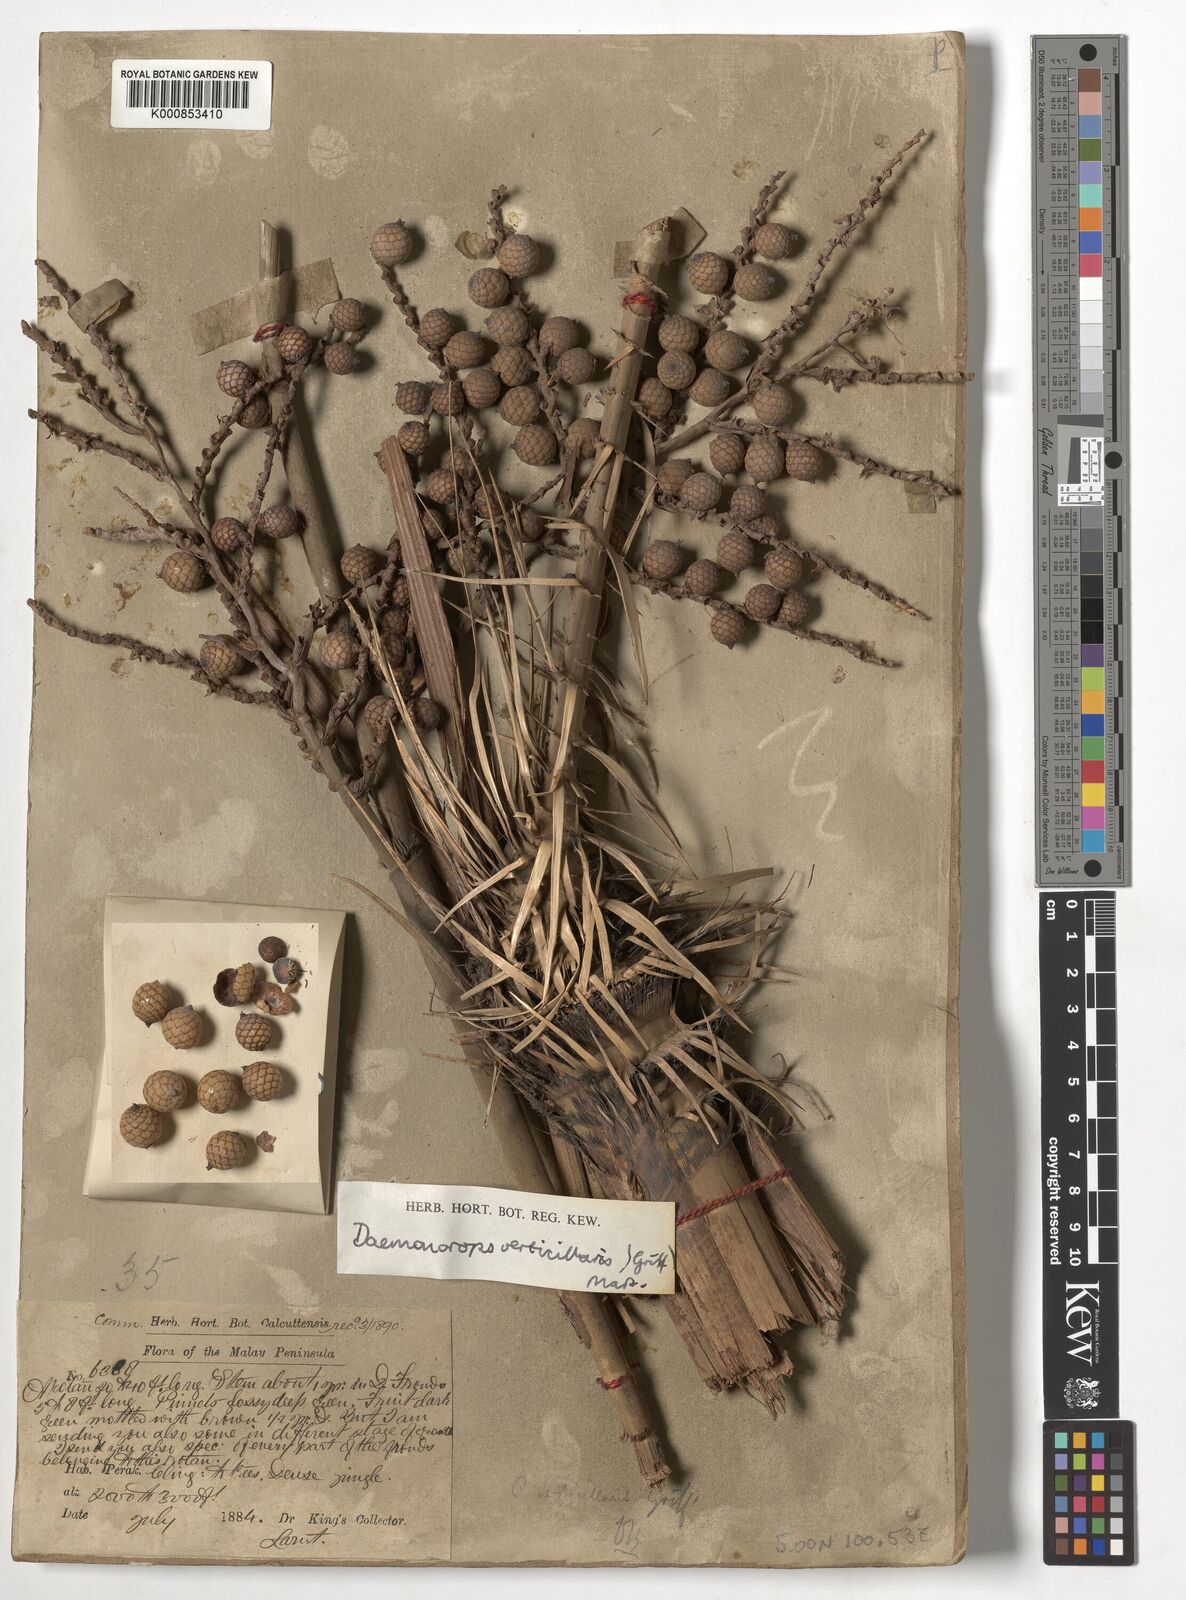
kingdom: Plantae
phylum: Tracheophyta
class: Liliopsida
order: Arecales
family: Arecaceae
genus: Calamus
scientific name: Calamus verticillaris
